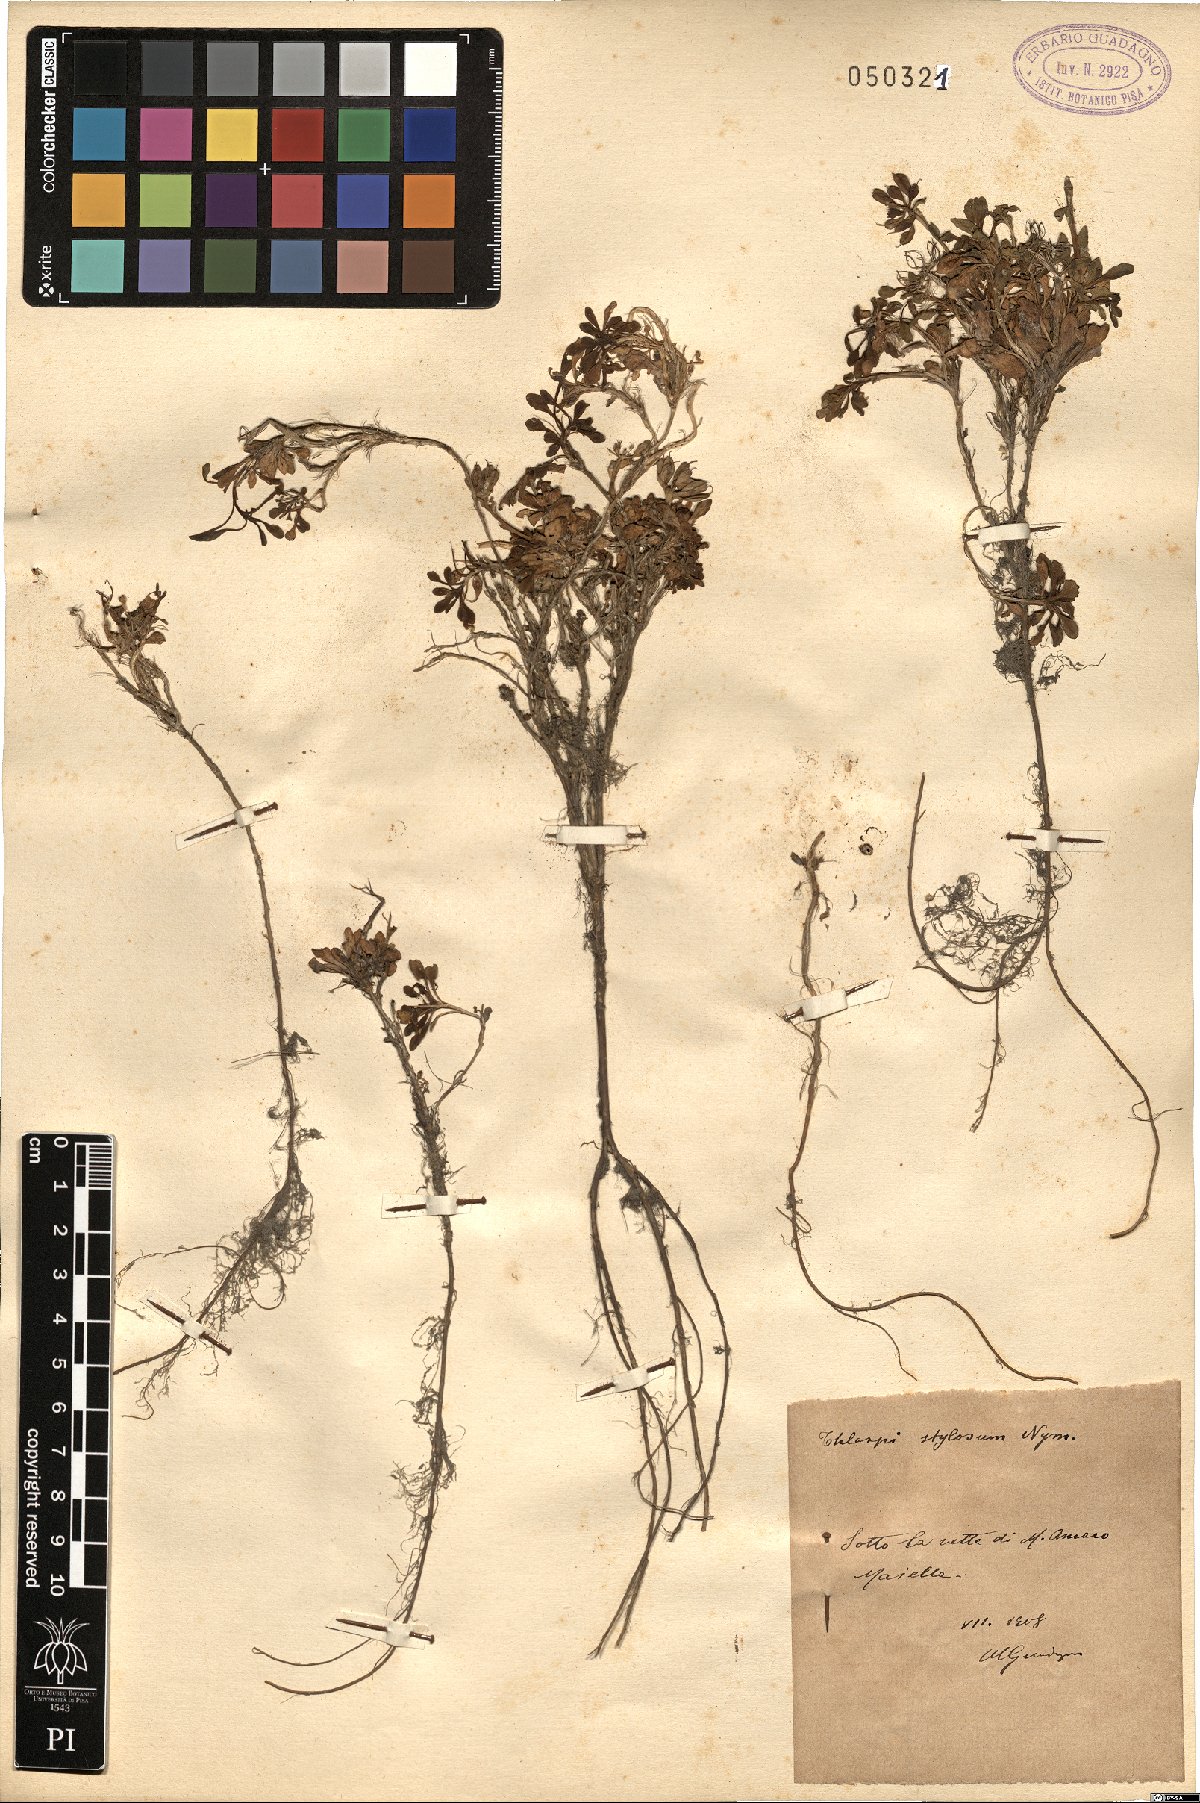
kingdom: Plantae
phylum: Tracheophyta
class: Magnoliopsida
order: Brassicales
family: Brassicaceae
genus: Noccaea
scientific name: Noccaea stilosa
